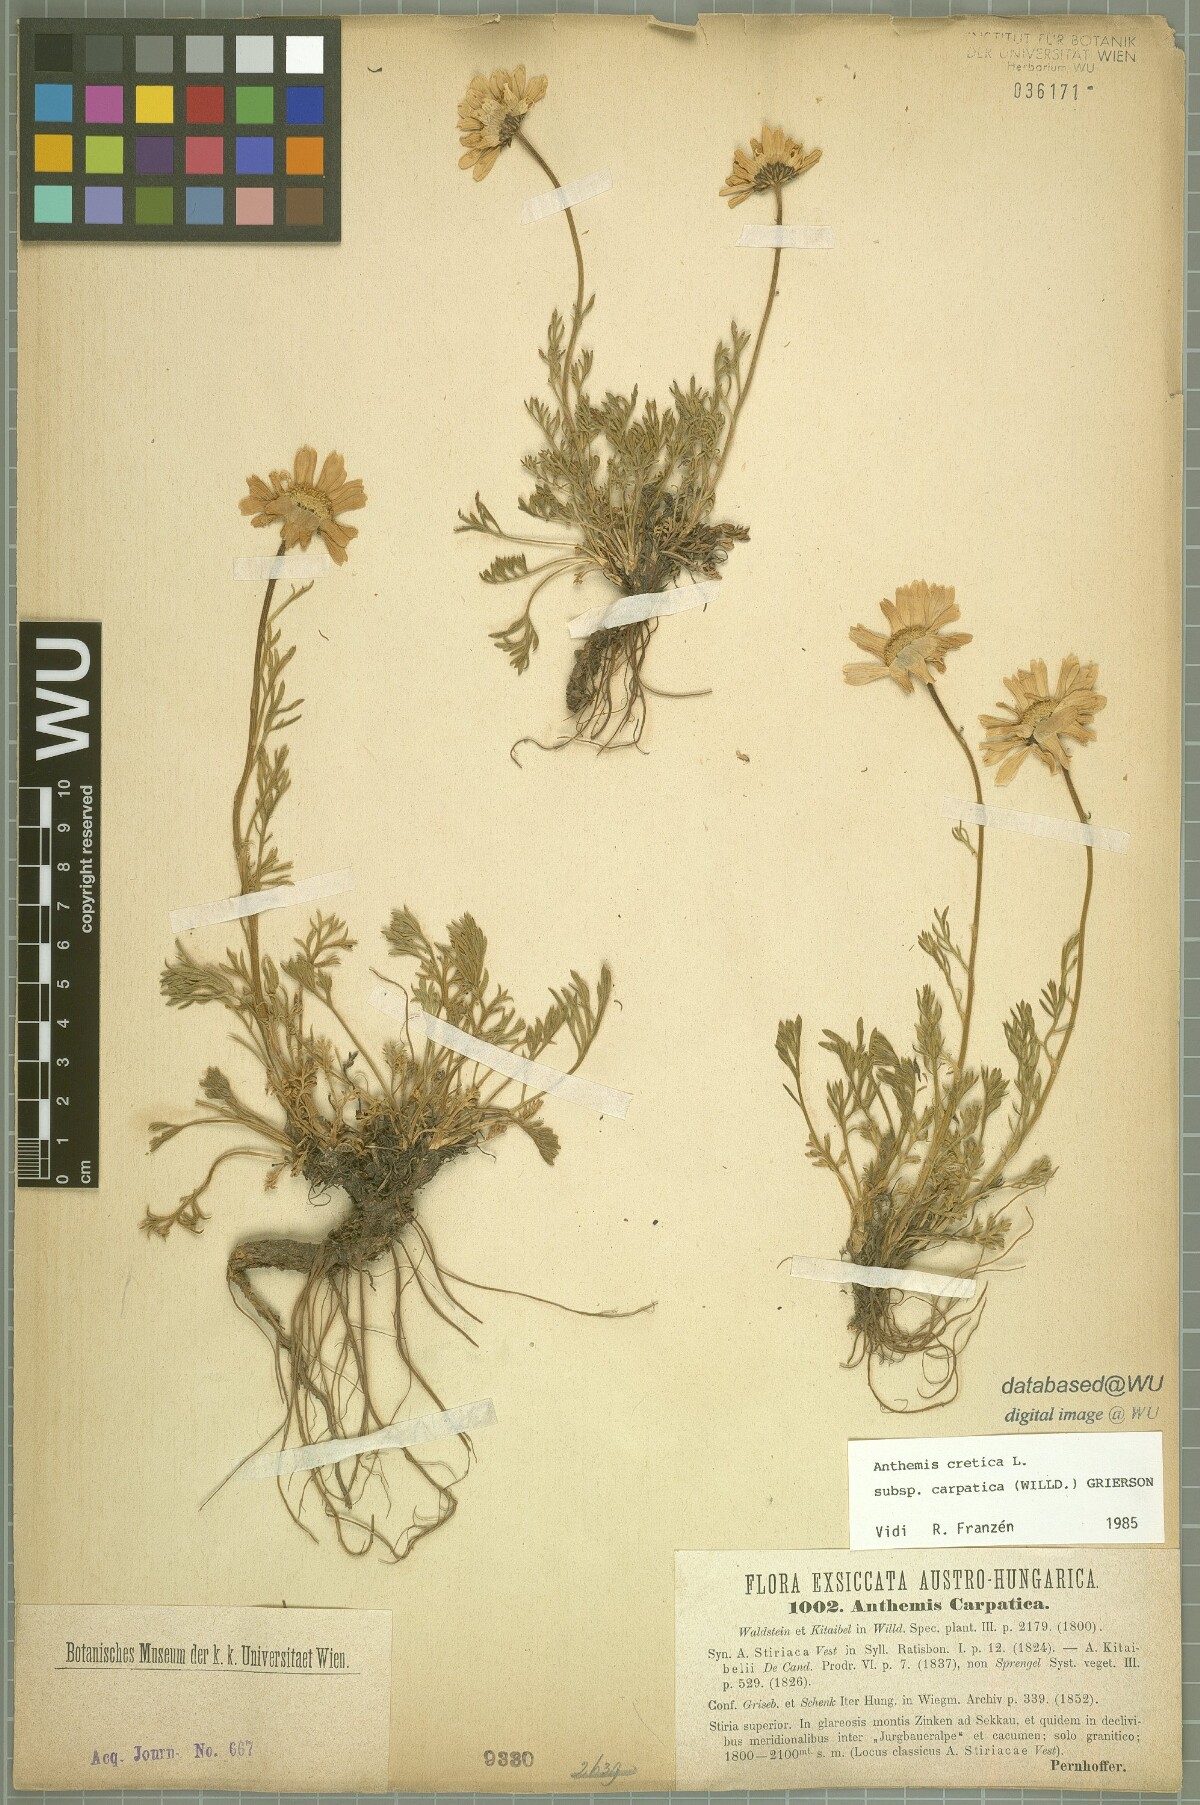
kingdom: Plantae
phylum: Tracheophyta
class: Magnoliopsida
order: Asterales
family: Asteraceae
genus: Anthemis
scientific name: Anthemis cretica
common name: Mountain dog-daisy
